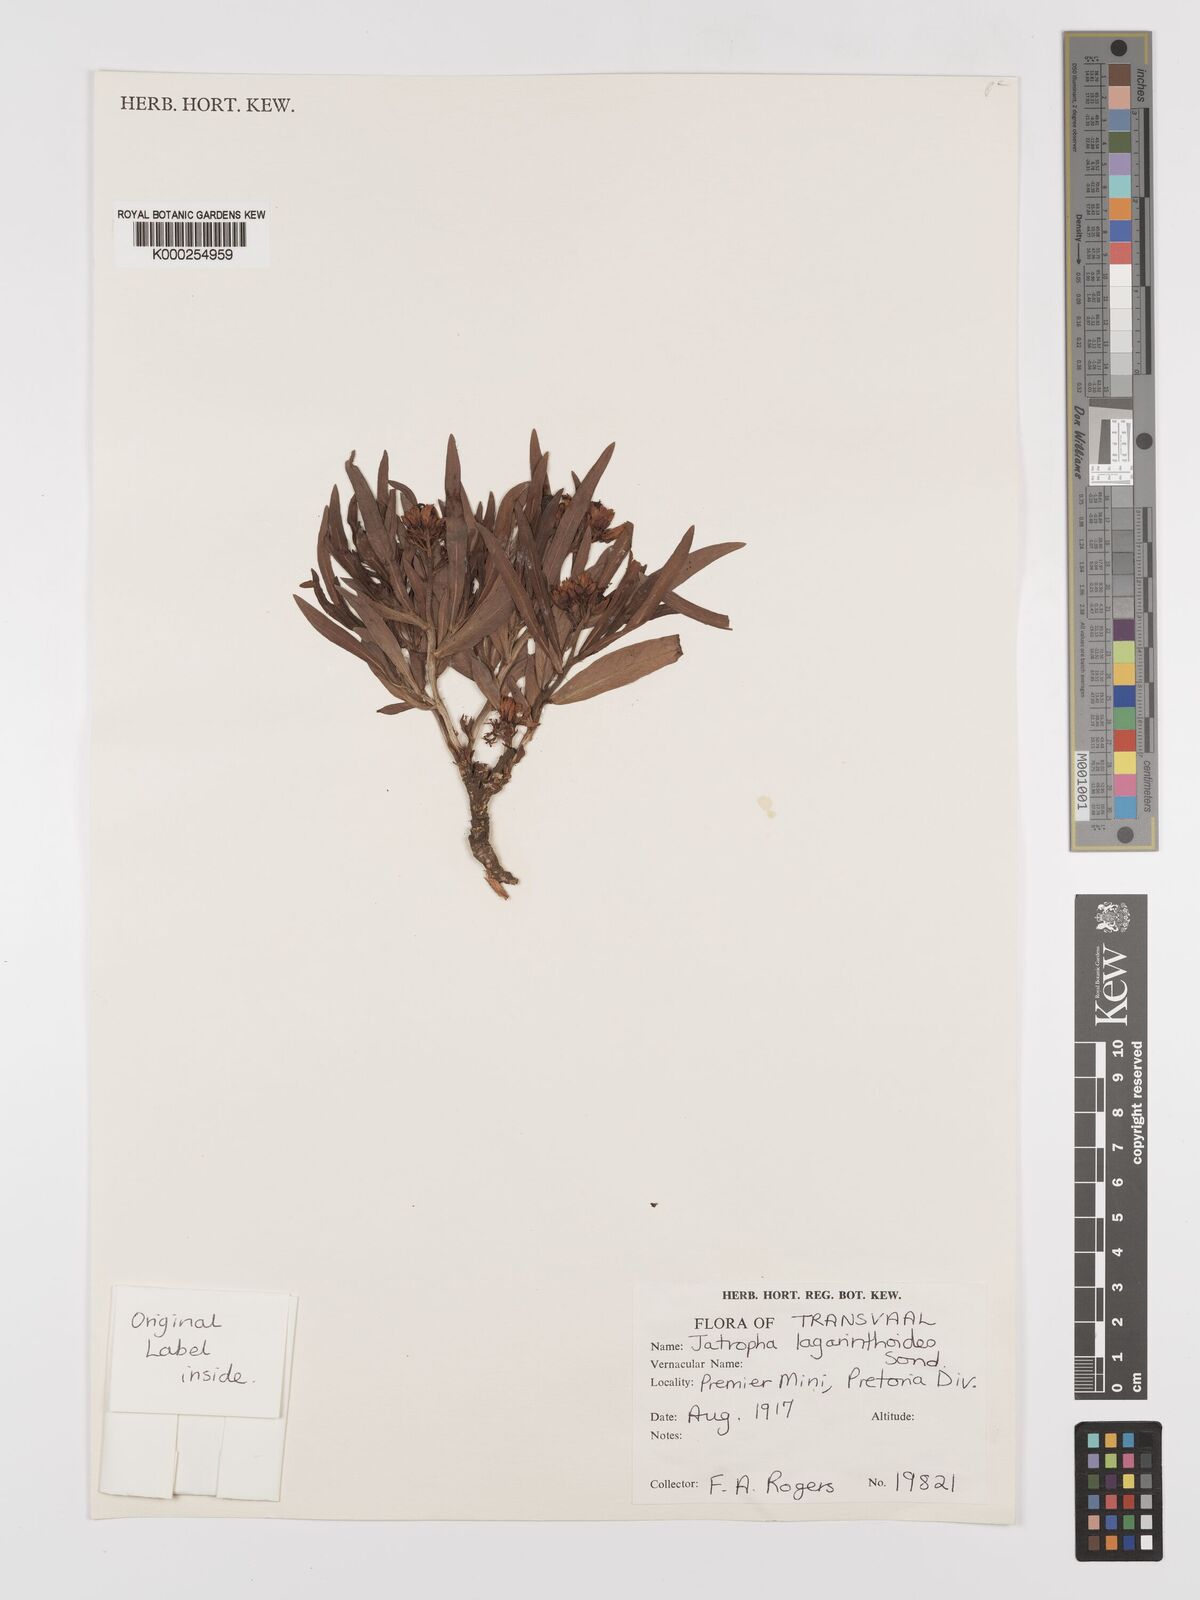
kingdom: Plantae
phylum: Tracheophyta
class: Magnoliopsida
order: Malpighiales
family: Euphorbiaceae
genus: Jatropha
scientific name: Jatropha lagarinthoides
